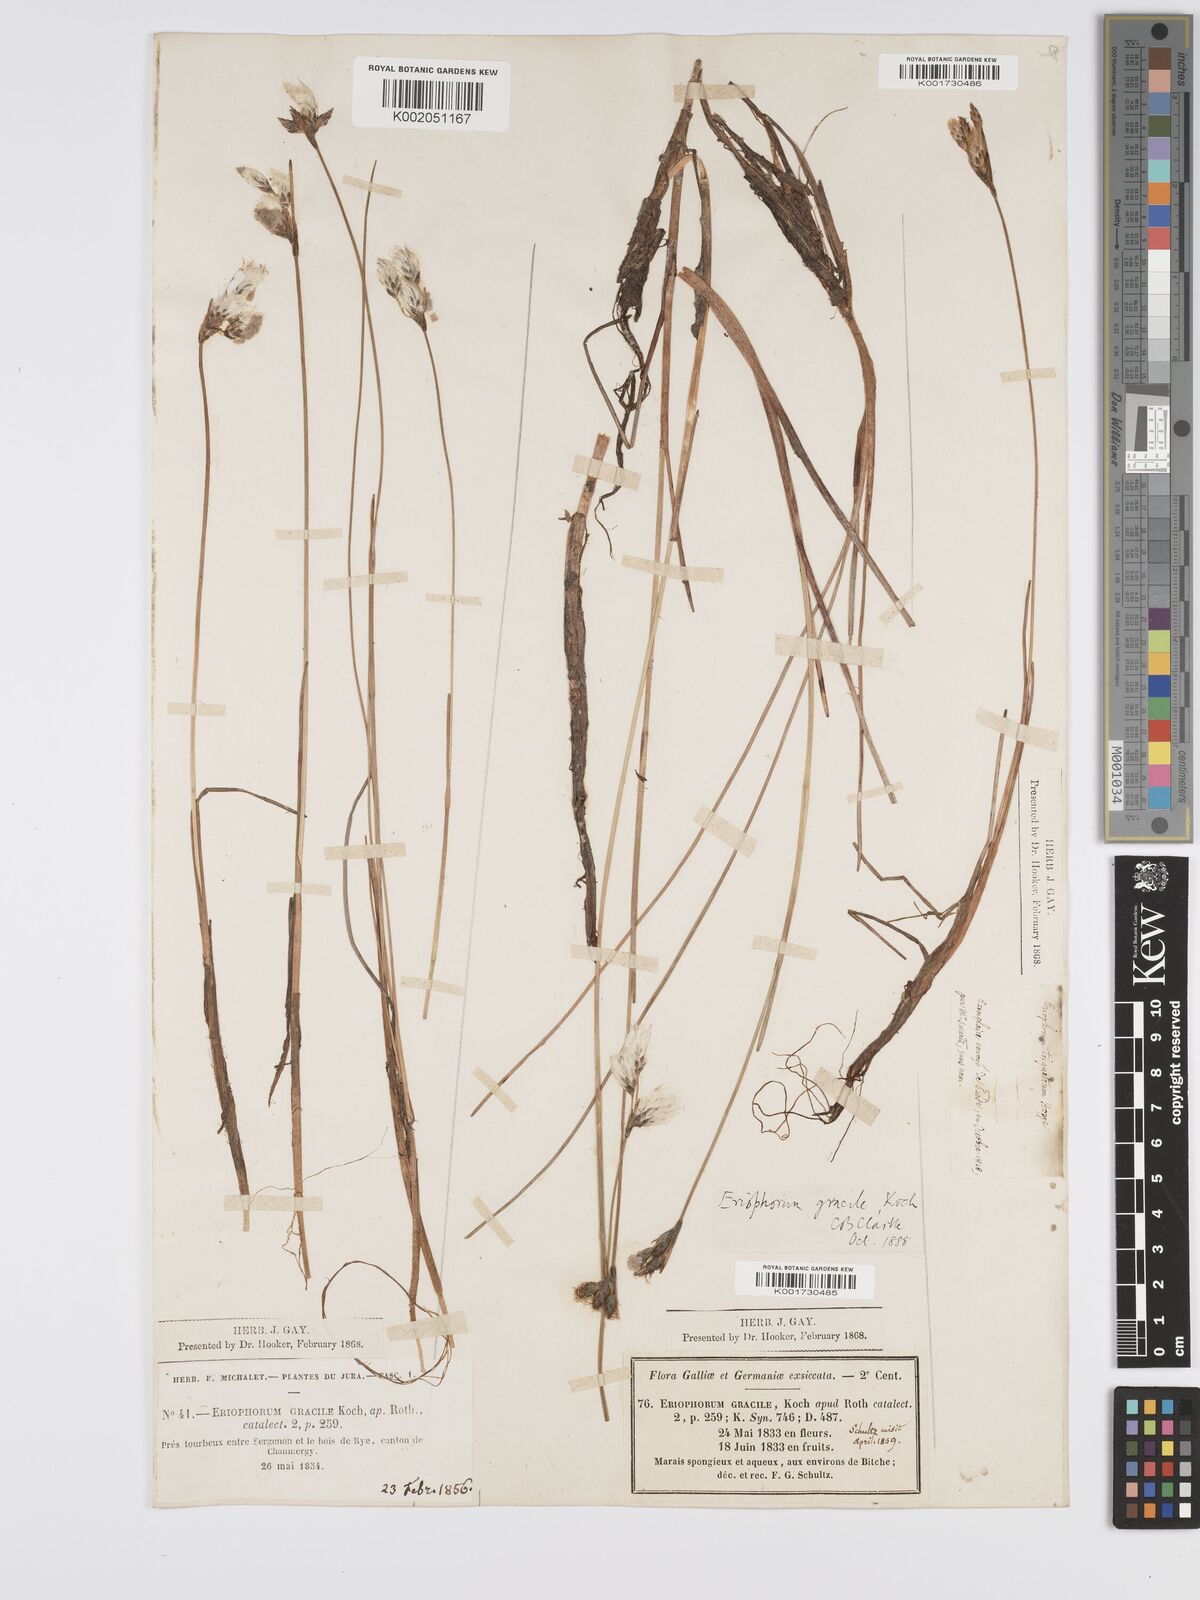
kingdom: Plantae
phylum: Tracheophyta
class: Liliopsida
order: Poales
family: Cyperaceae
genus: Eriophorum
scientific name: Eriophorum gracile
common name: Slender cottongrass
